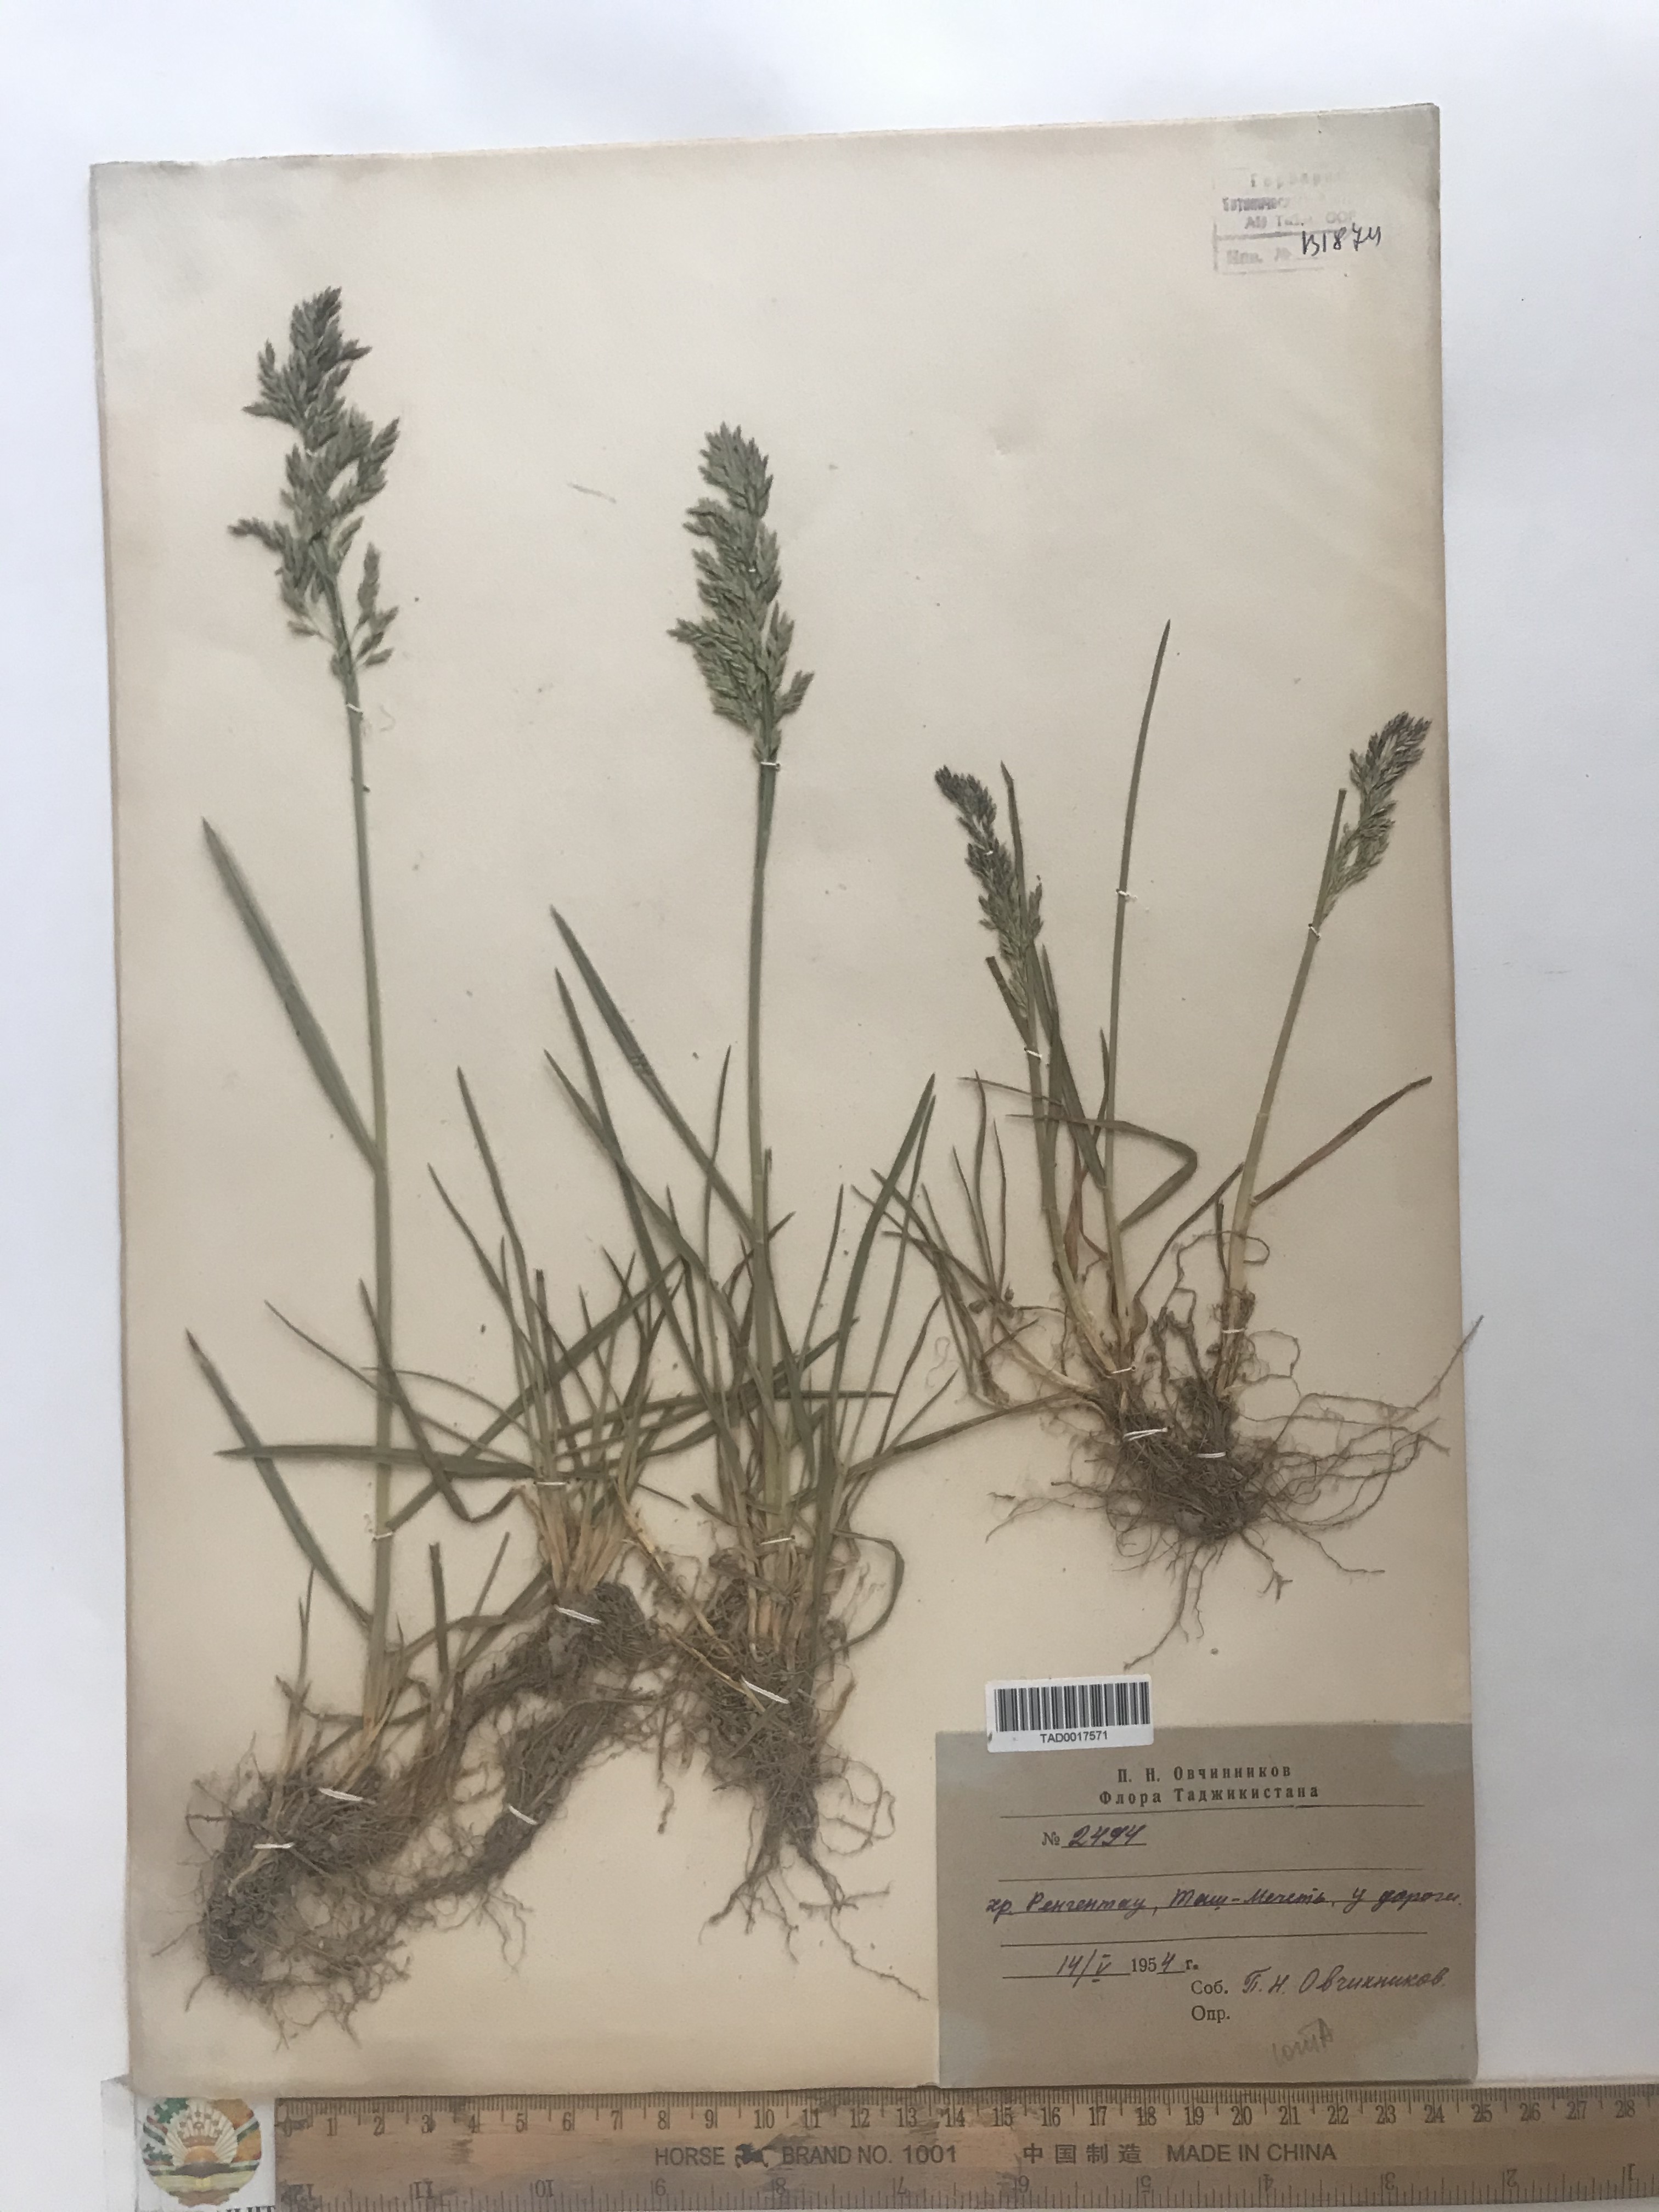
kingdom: Plantae
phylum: Tracheophyta
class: Liliopsida
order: Poales
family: Poaceae
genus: Poa
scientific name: Poa tianschanica
